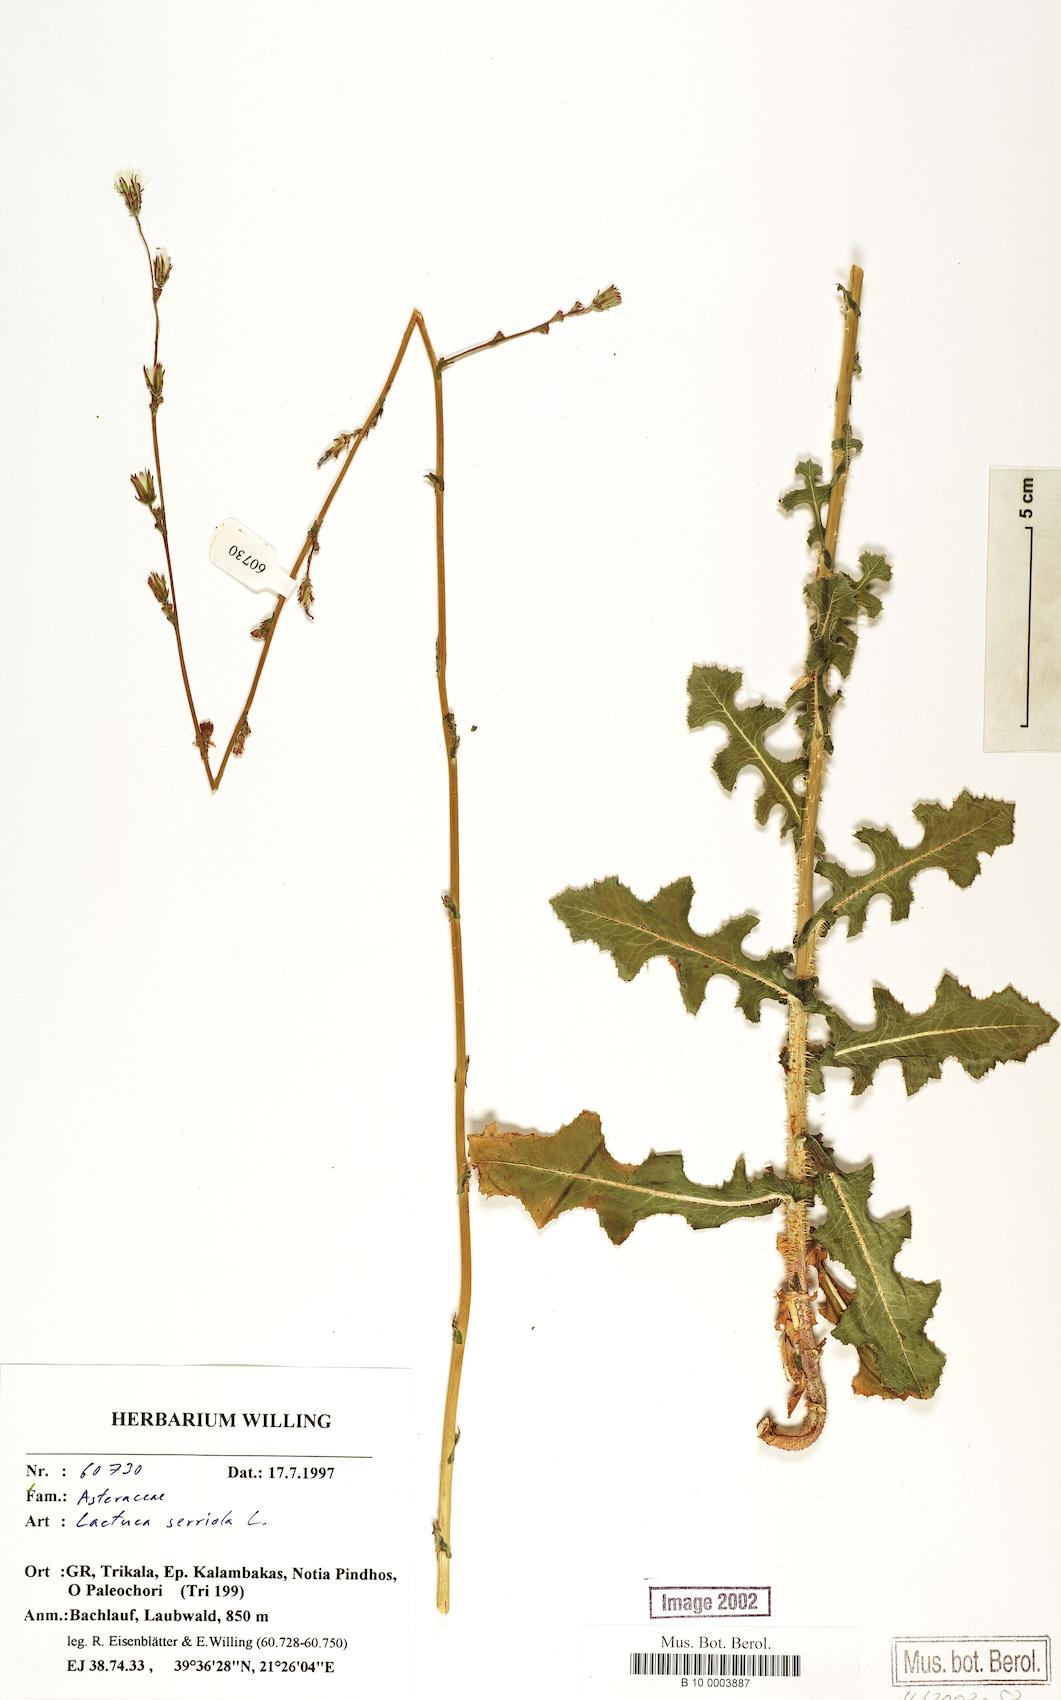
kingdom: Plantae
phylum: Tracheophyta
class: Magnoliopsida
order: Asterales
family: Asteraceae
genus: Lactuca
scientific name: Lactuca serriola
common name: Prickly lettuce
